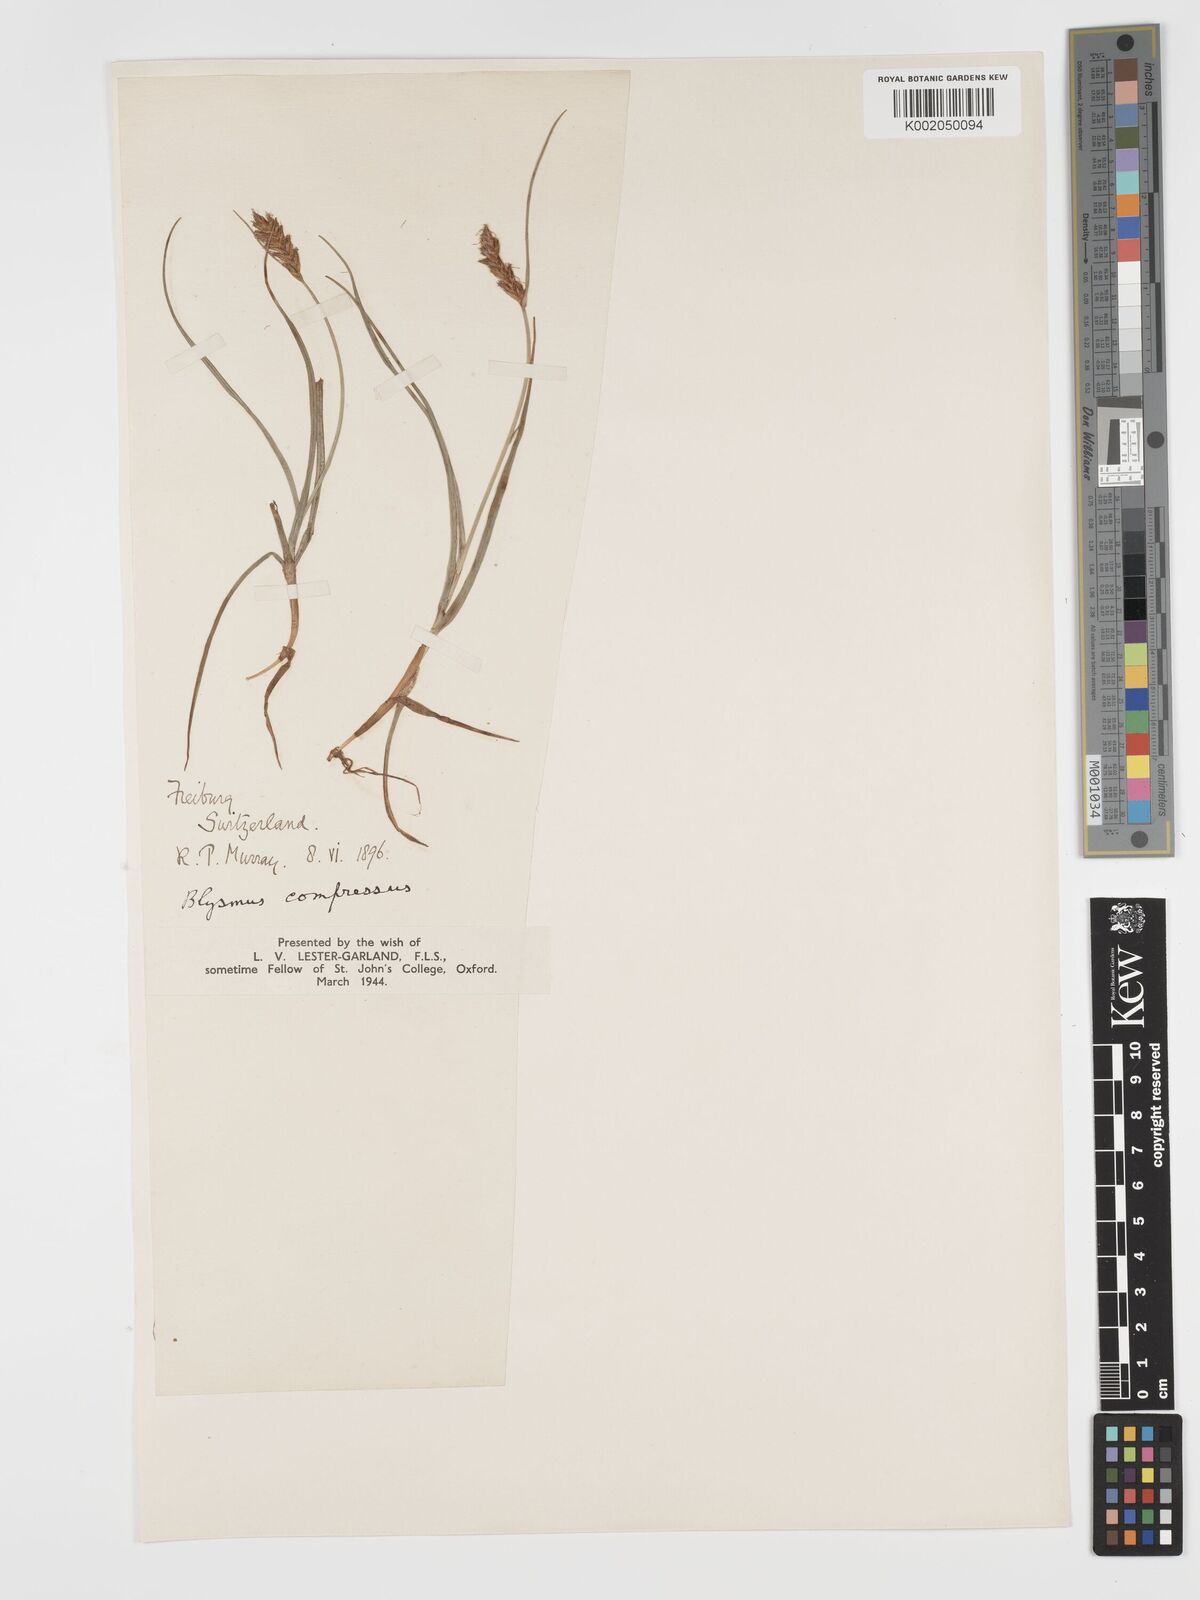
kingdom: Plantae
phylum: Tracheophyta
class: Liliopsida
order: Poales
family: Cyperaceae
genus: Blysmus
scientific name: Blysmus compressus
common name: Flat-sedge
